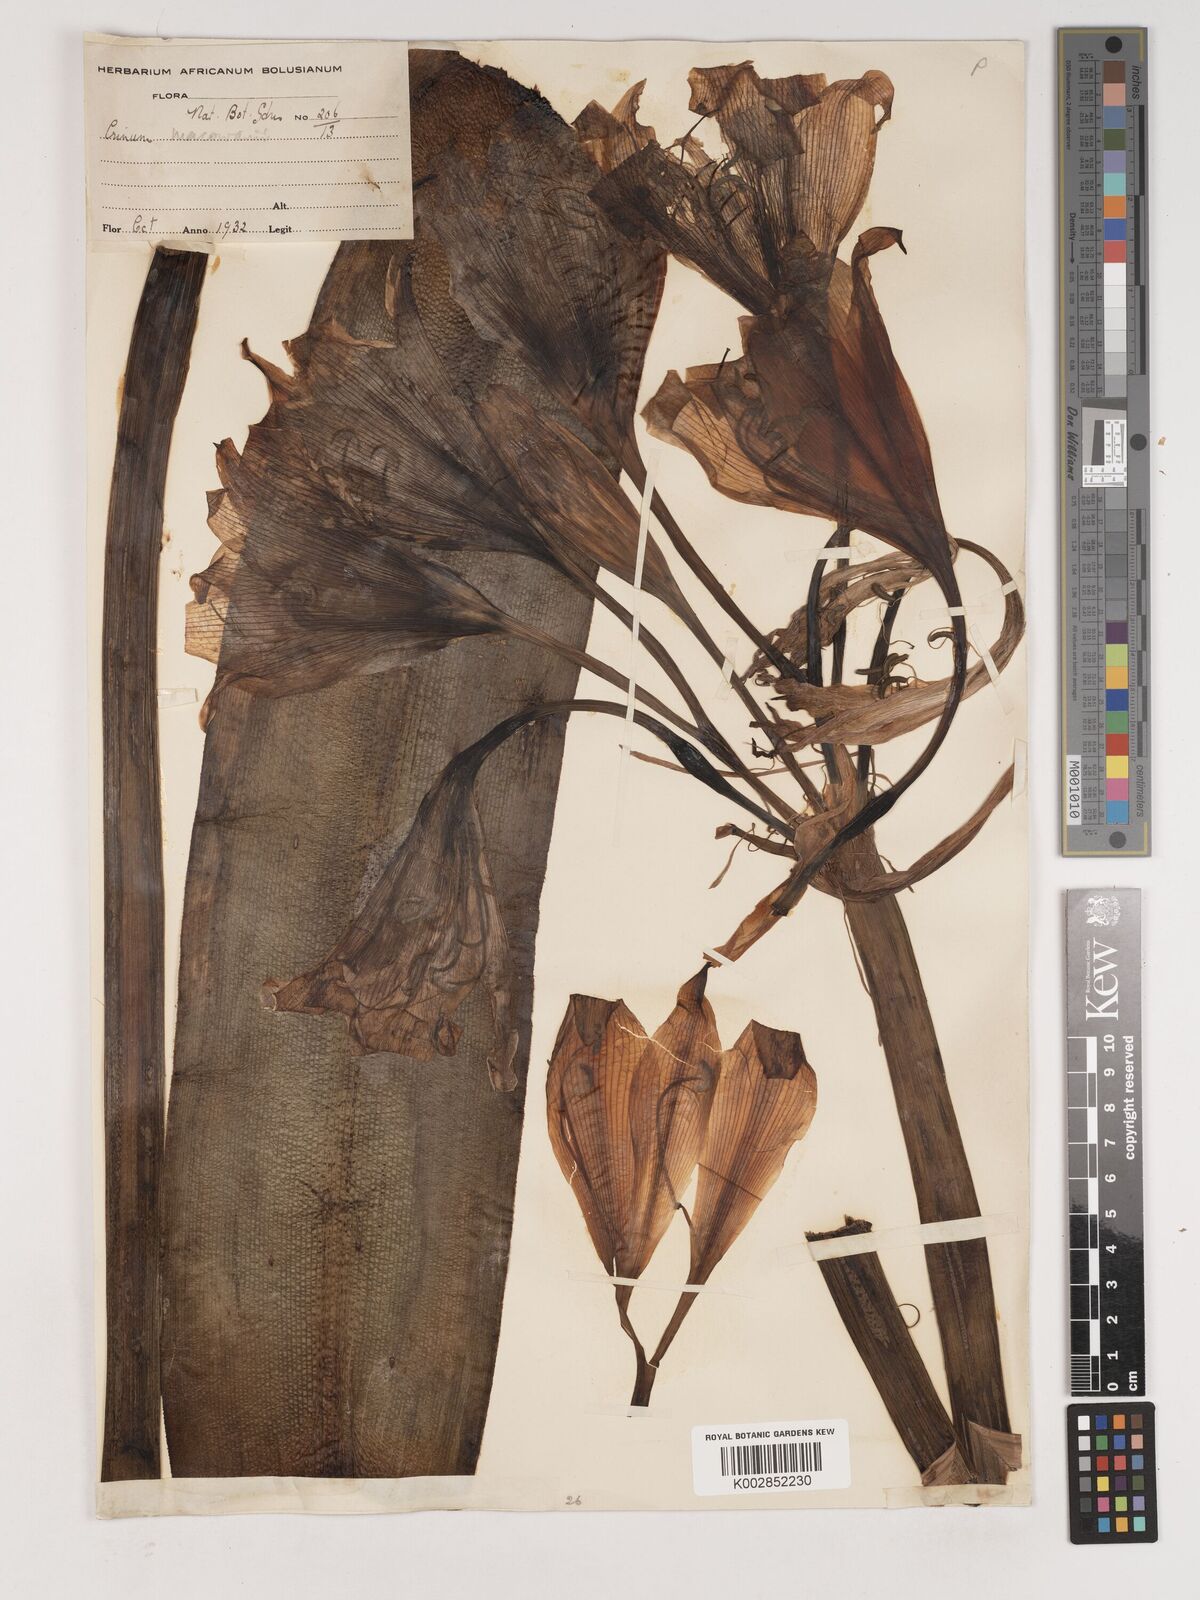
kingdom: Plantae
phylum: Tracheophyta
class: Liliopsida
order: Asparagales
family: Amaryllidaceae
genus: Crinum
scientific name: Crinum macowanii
